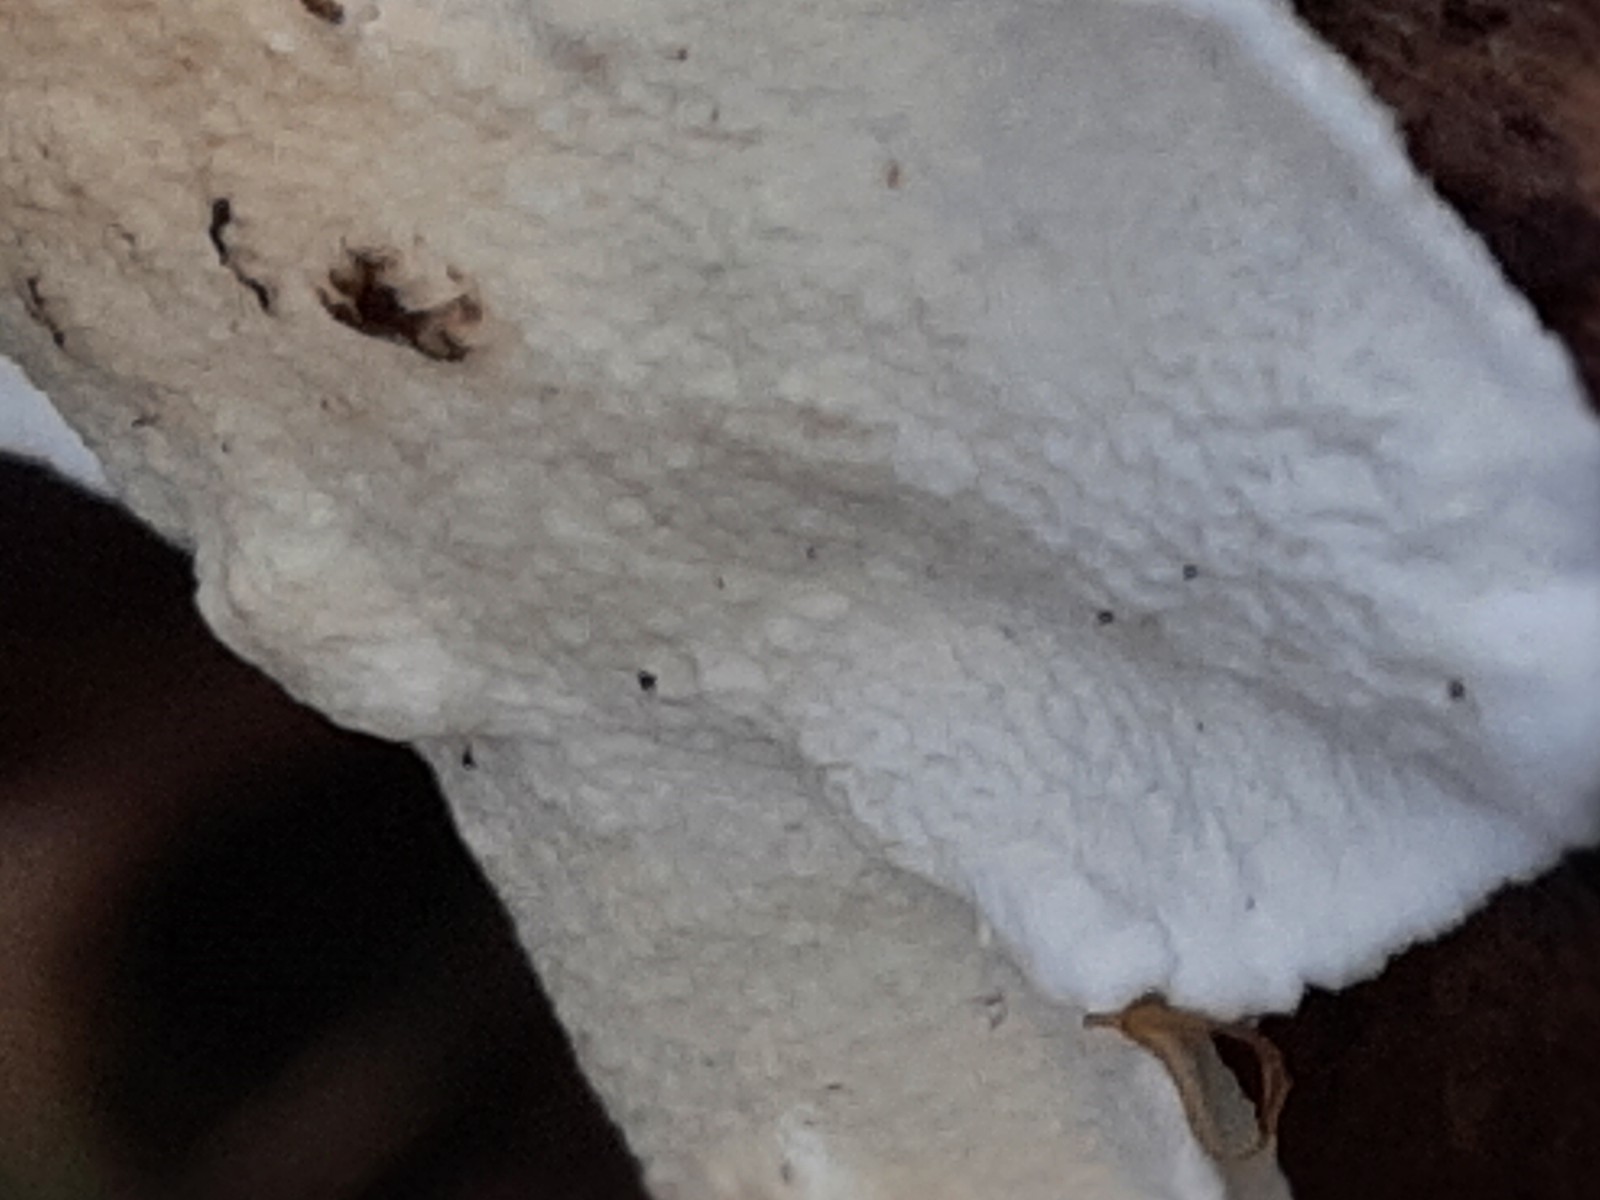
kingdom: Fungi
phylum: Basidiomycota
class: Agaricomycetes
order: Polyporales
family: Irpicaceae
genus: Byssomerulius
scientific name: Byssomerulius corium
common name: læder-åresvamp
